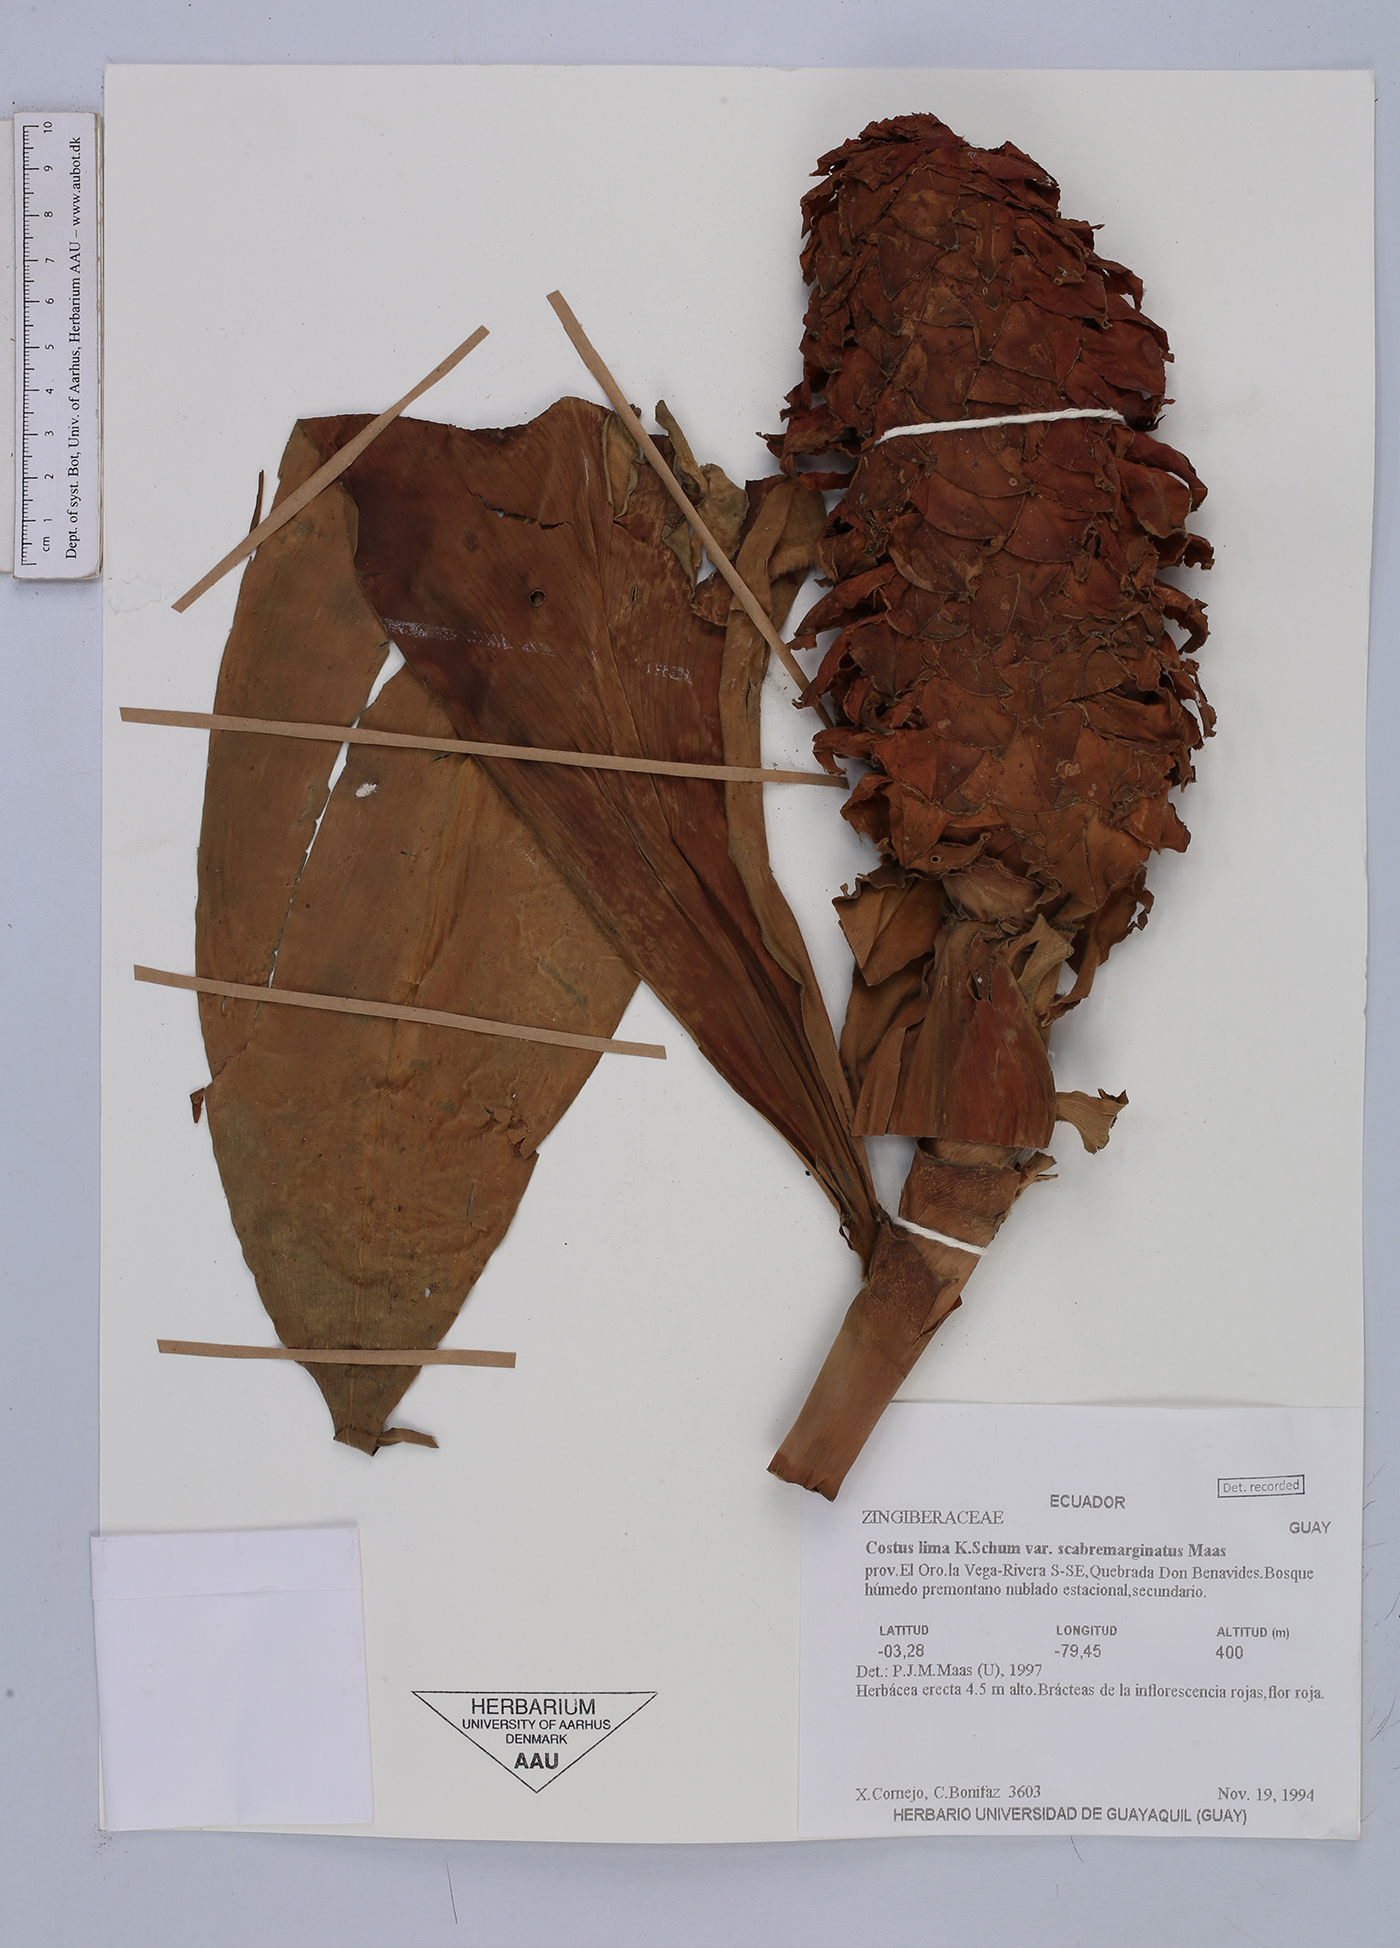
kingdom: Plantae
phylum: Tracheophyta
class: Liliopsida
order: Zingiberales
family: Costaceae
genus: Costus
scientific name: Costus lima
